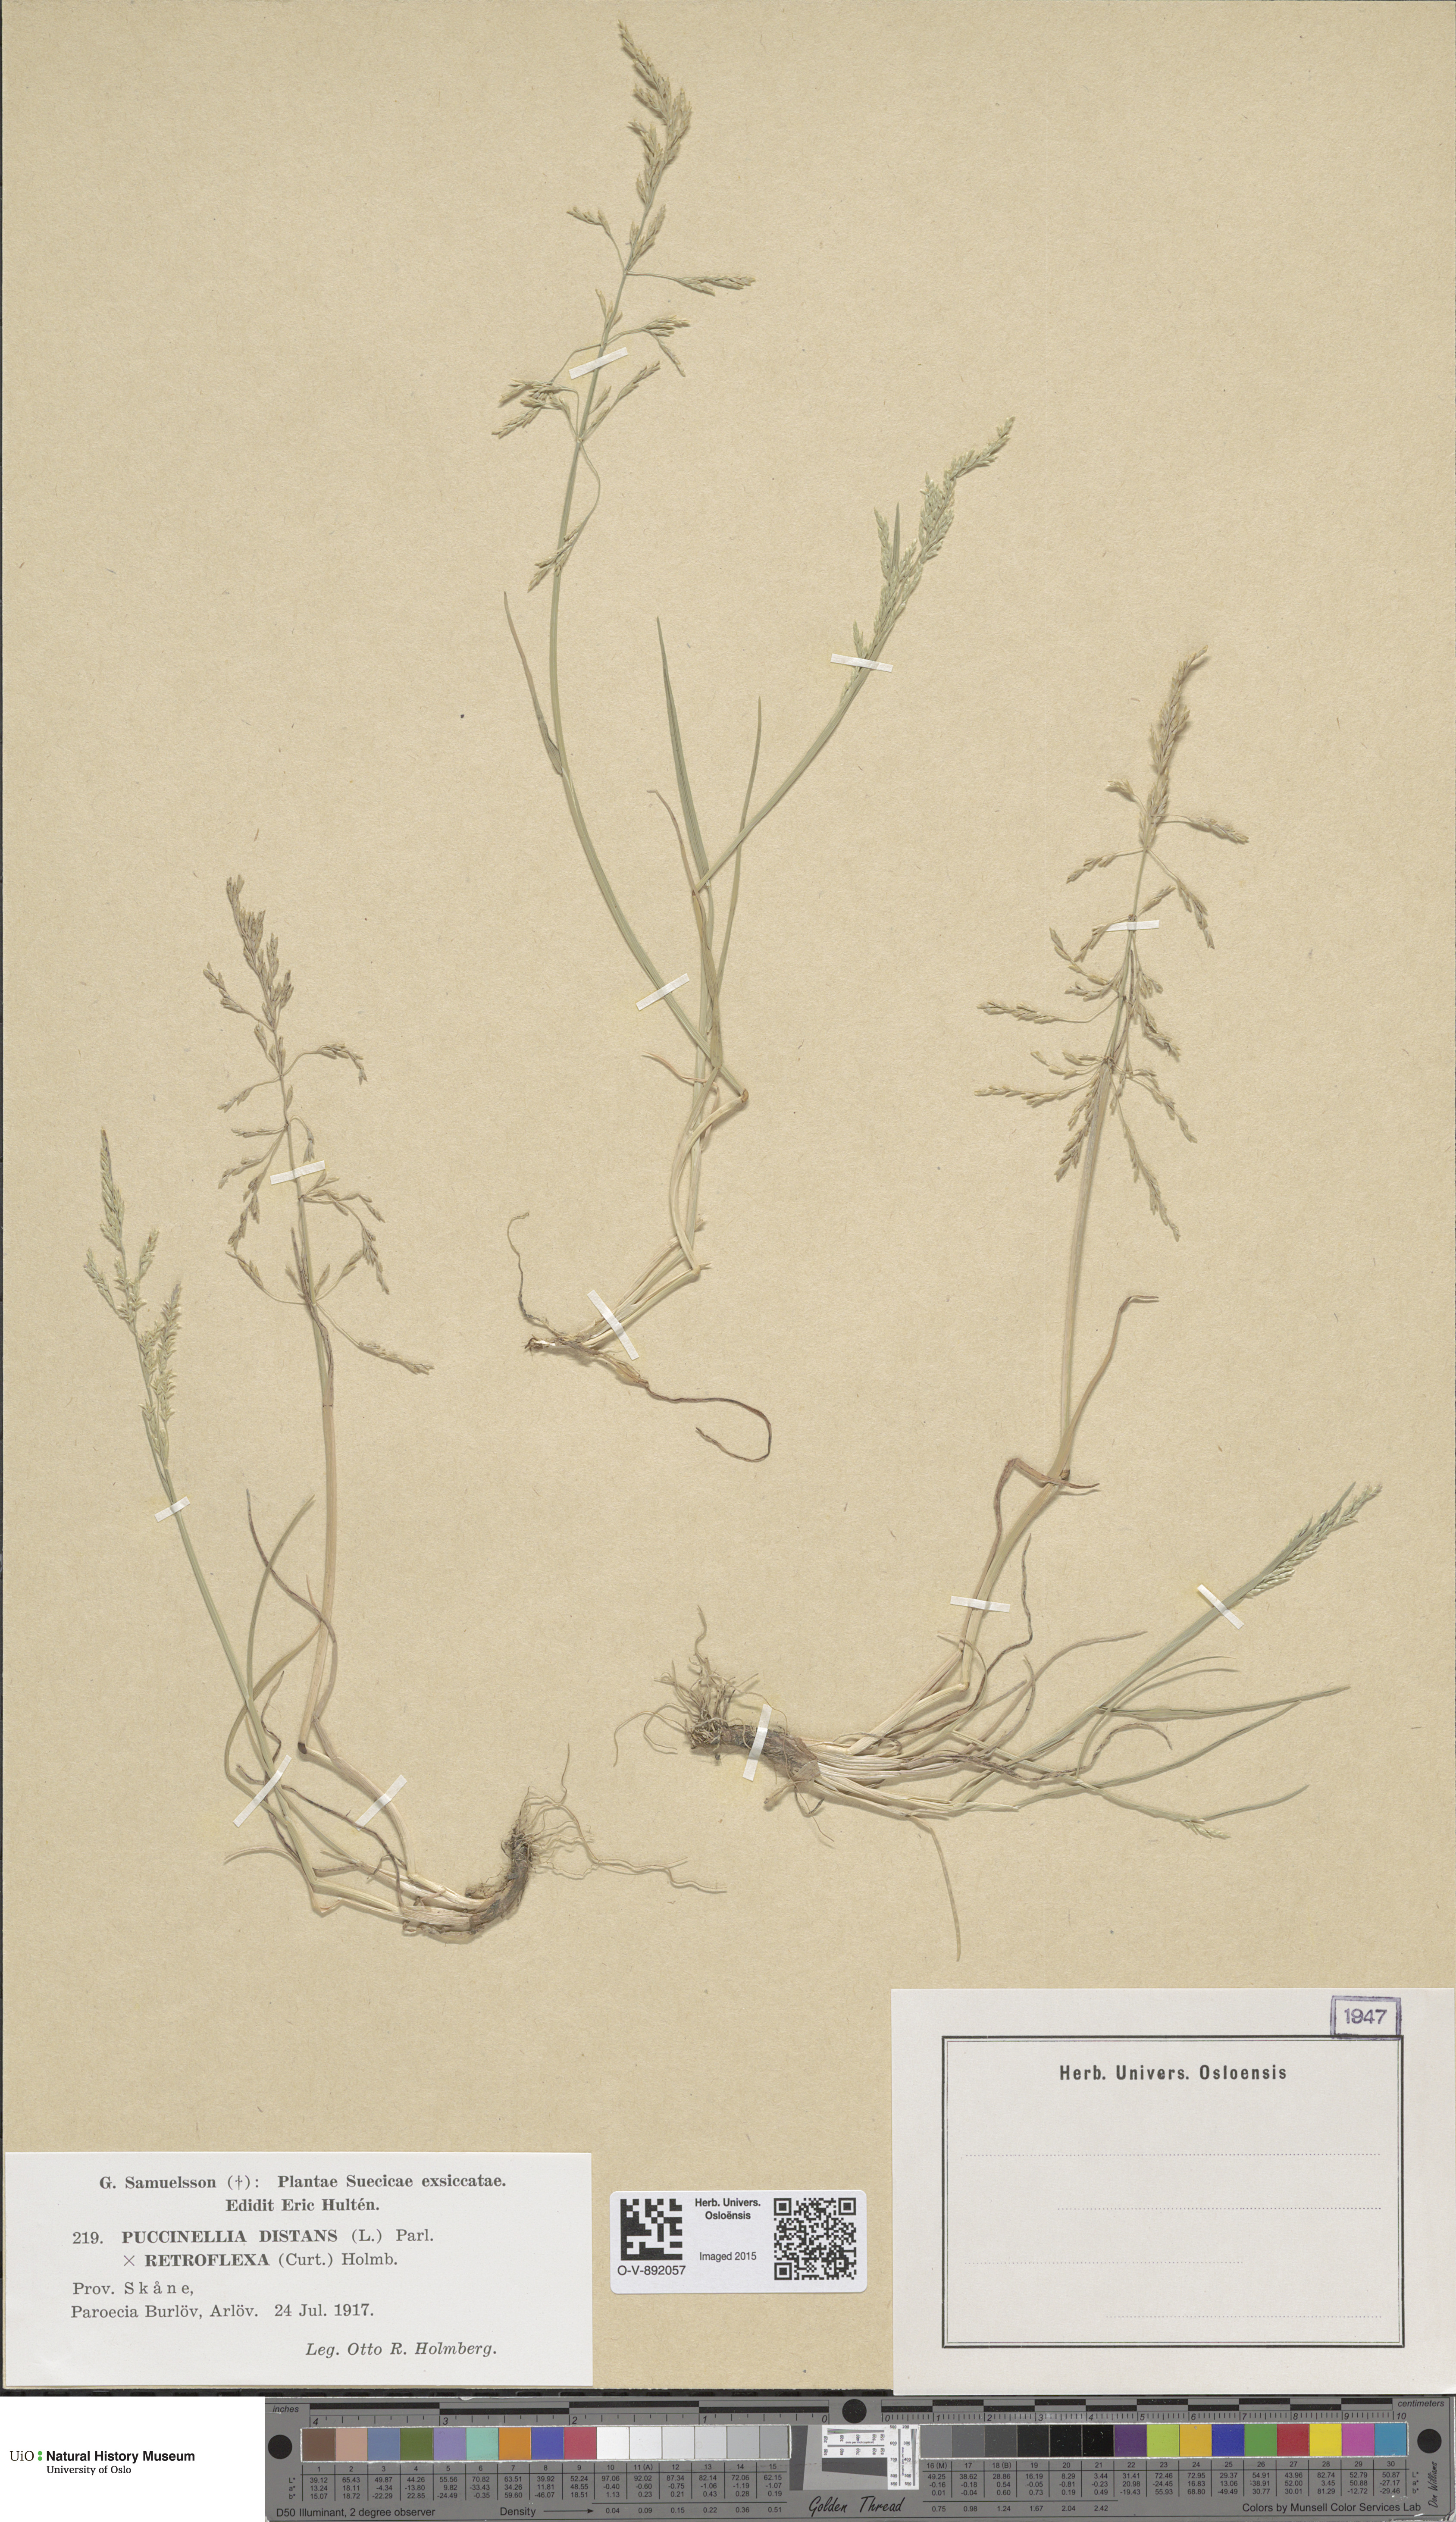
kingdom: Plantae
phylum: Tracheophyta
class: Liliopsida
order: Poales
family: Poaceae
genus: Puccinellia
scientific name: Puccinellia
